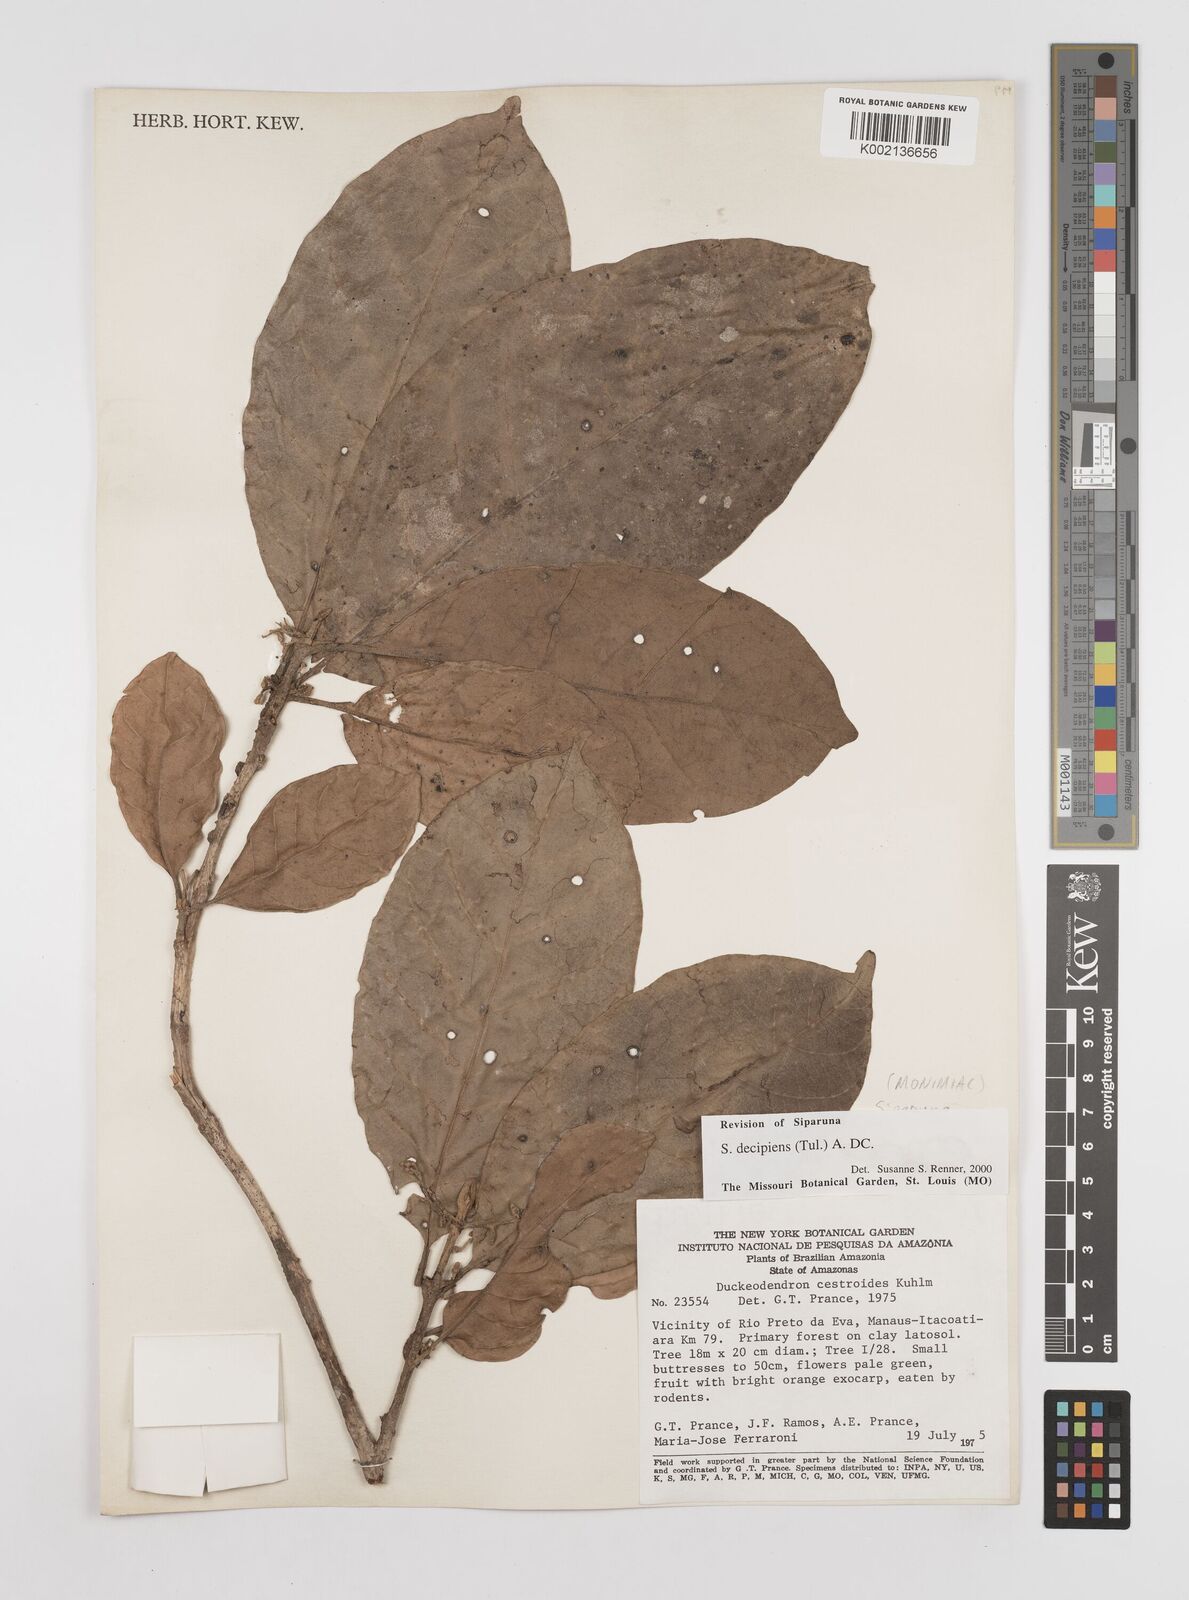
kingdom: Plantae
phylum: Tracheophyta
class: Magnoliopsida
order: Laurales
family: Siparunaceae
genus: Siparuna
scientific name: Siparuna decipiens
